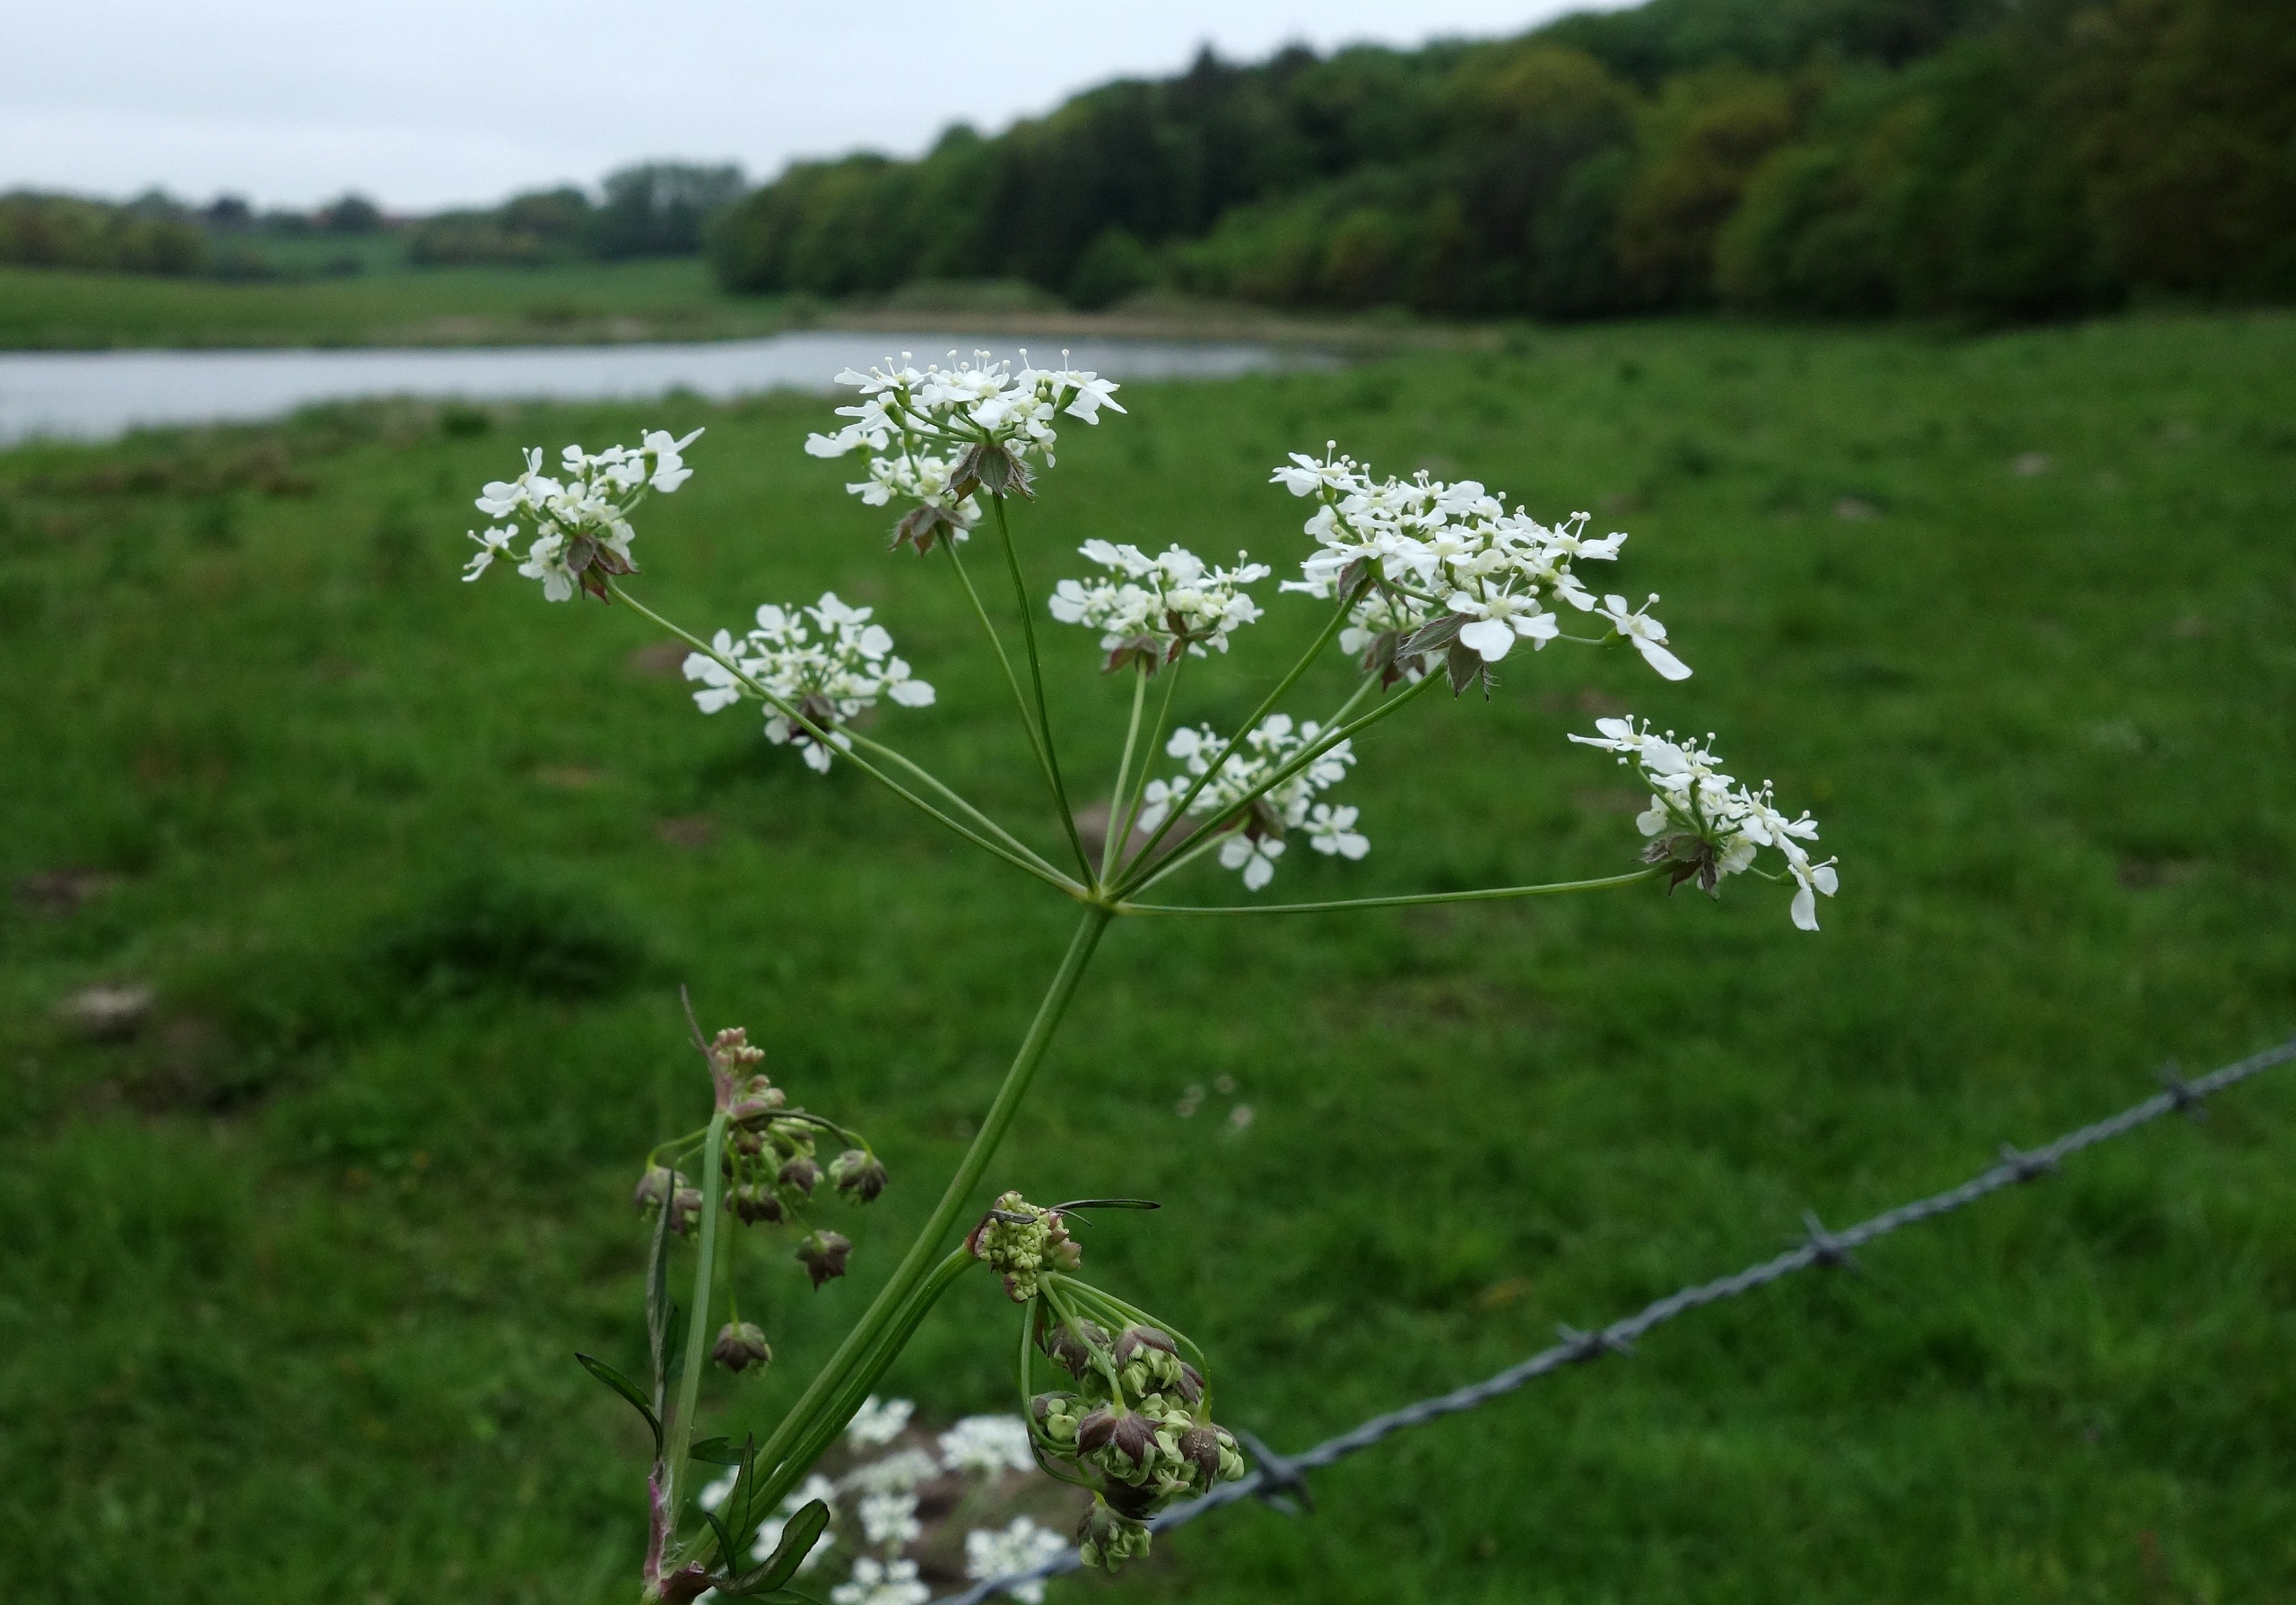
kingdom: Plantae
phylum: Tracheophyta
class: Magnoliopsida
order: Apiales
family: Apiaceae
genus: Anthriscus
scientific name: Anthriscus sylvestris
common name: Vild kørvel
